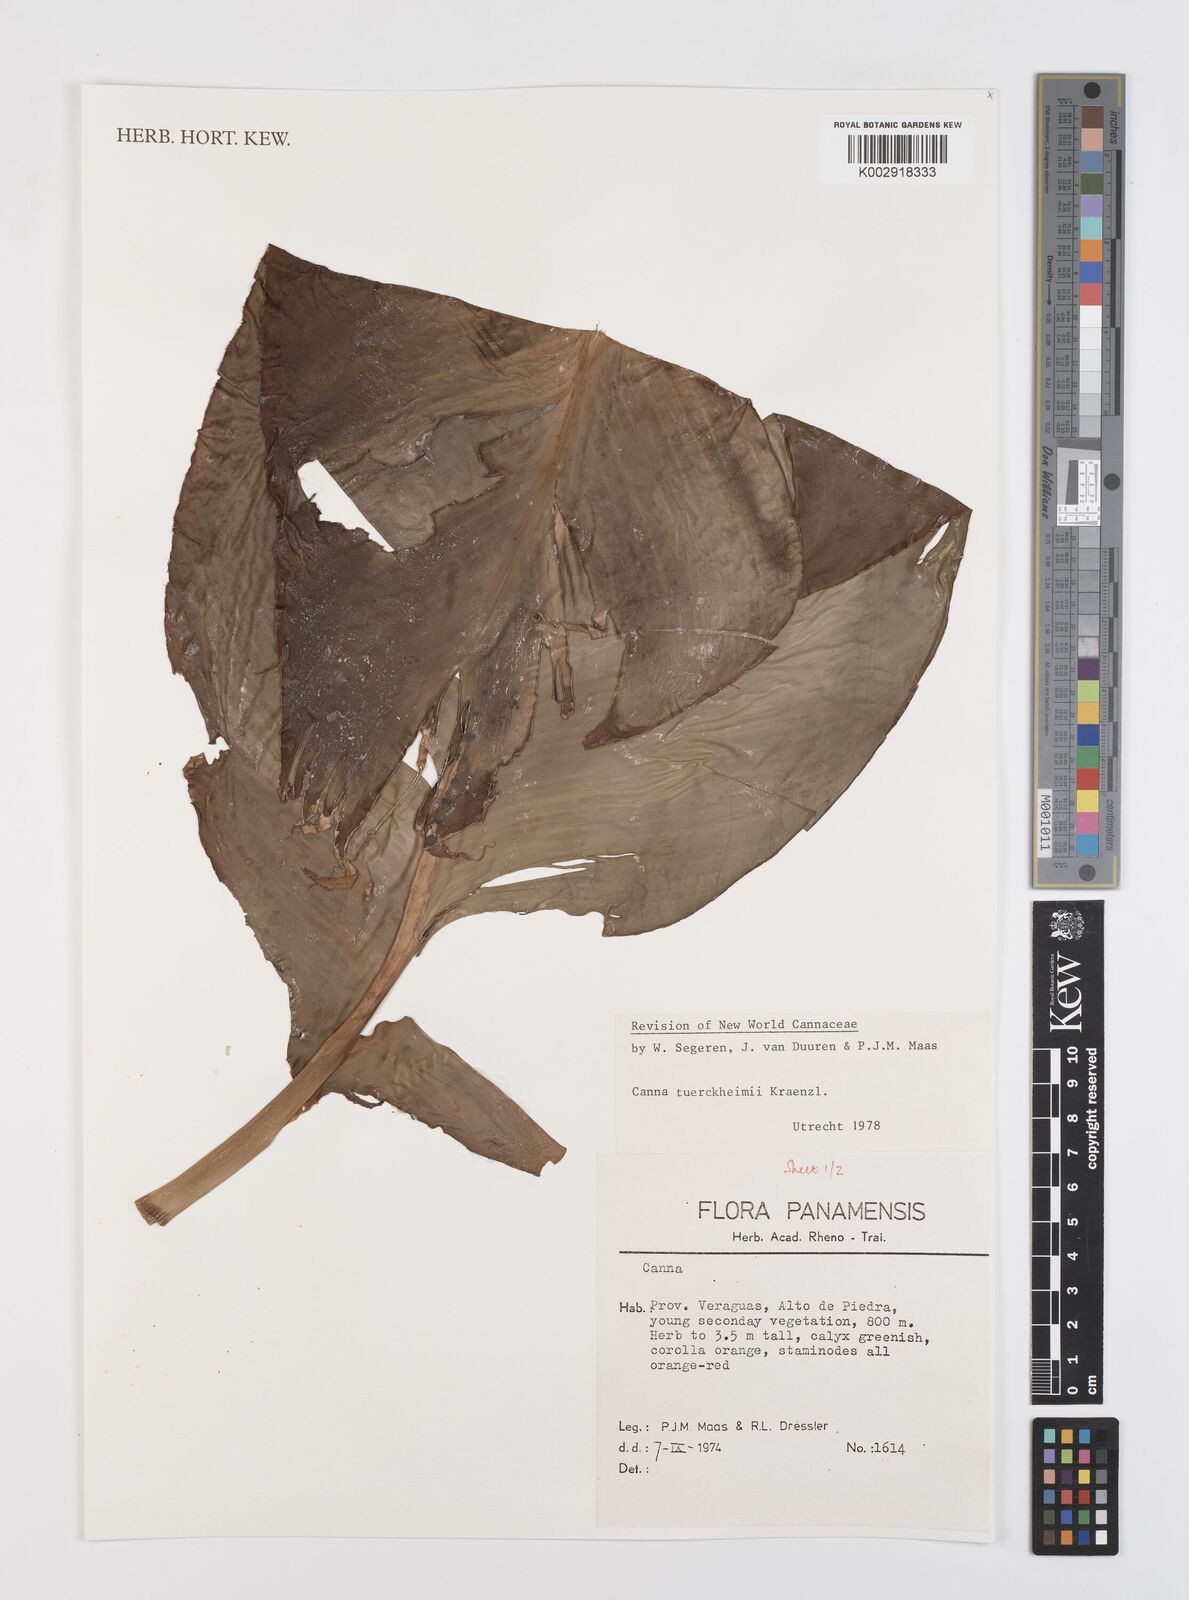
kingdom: Plantae
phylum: Tracheophyta
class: Liliopsida
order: Zingiberales
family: Cannaceae
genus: Canna
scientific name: Canna tuerckheimii
